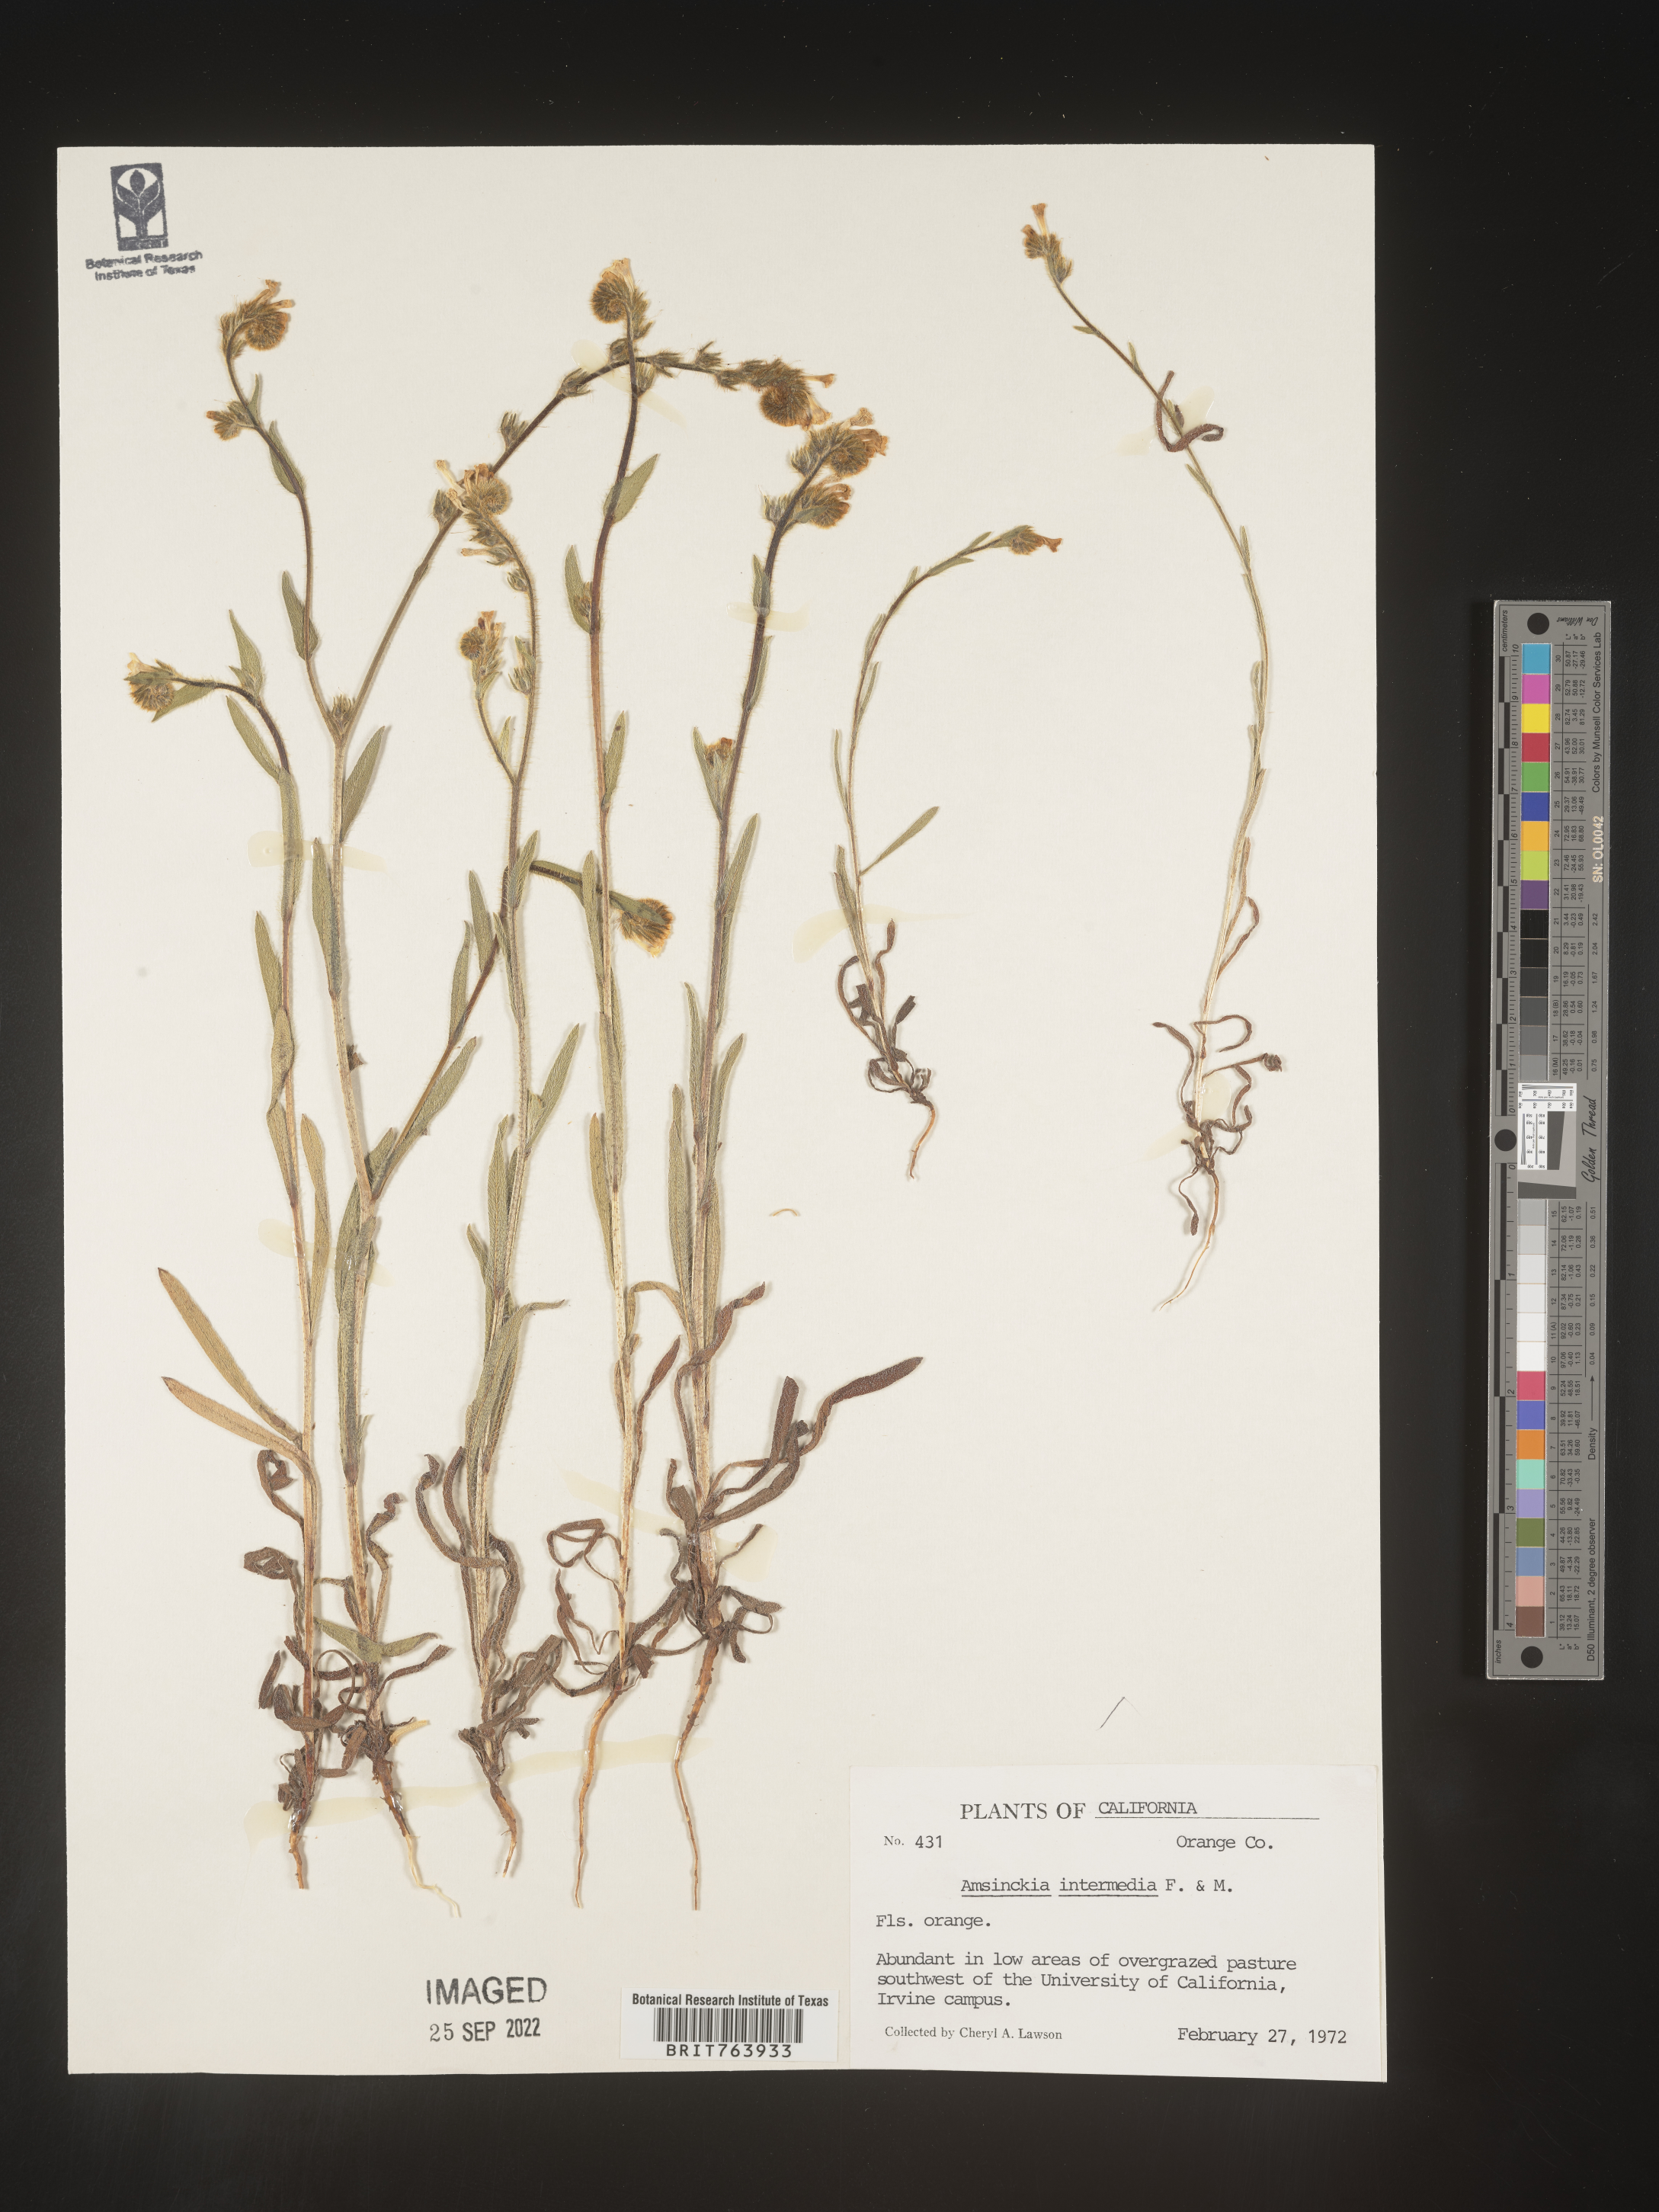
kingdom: Plantae
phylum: Tracheophyta
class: Magnoliopsida
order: Boraginales
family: Boraginaceae
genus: Amsinckia
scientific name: Amsinckia
